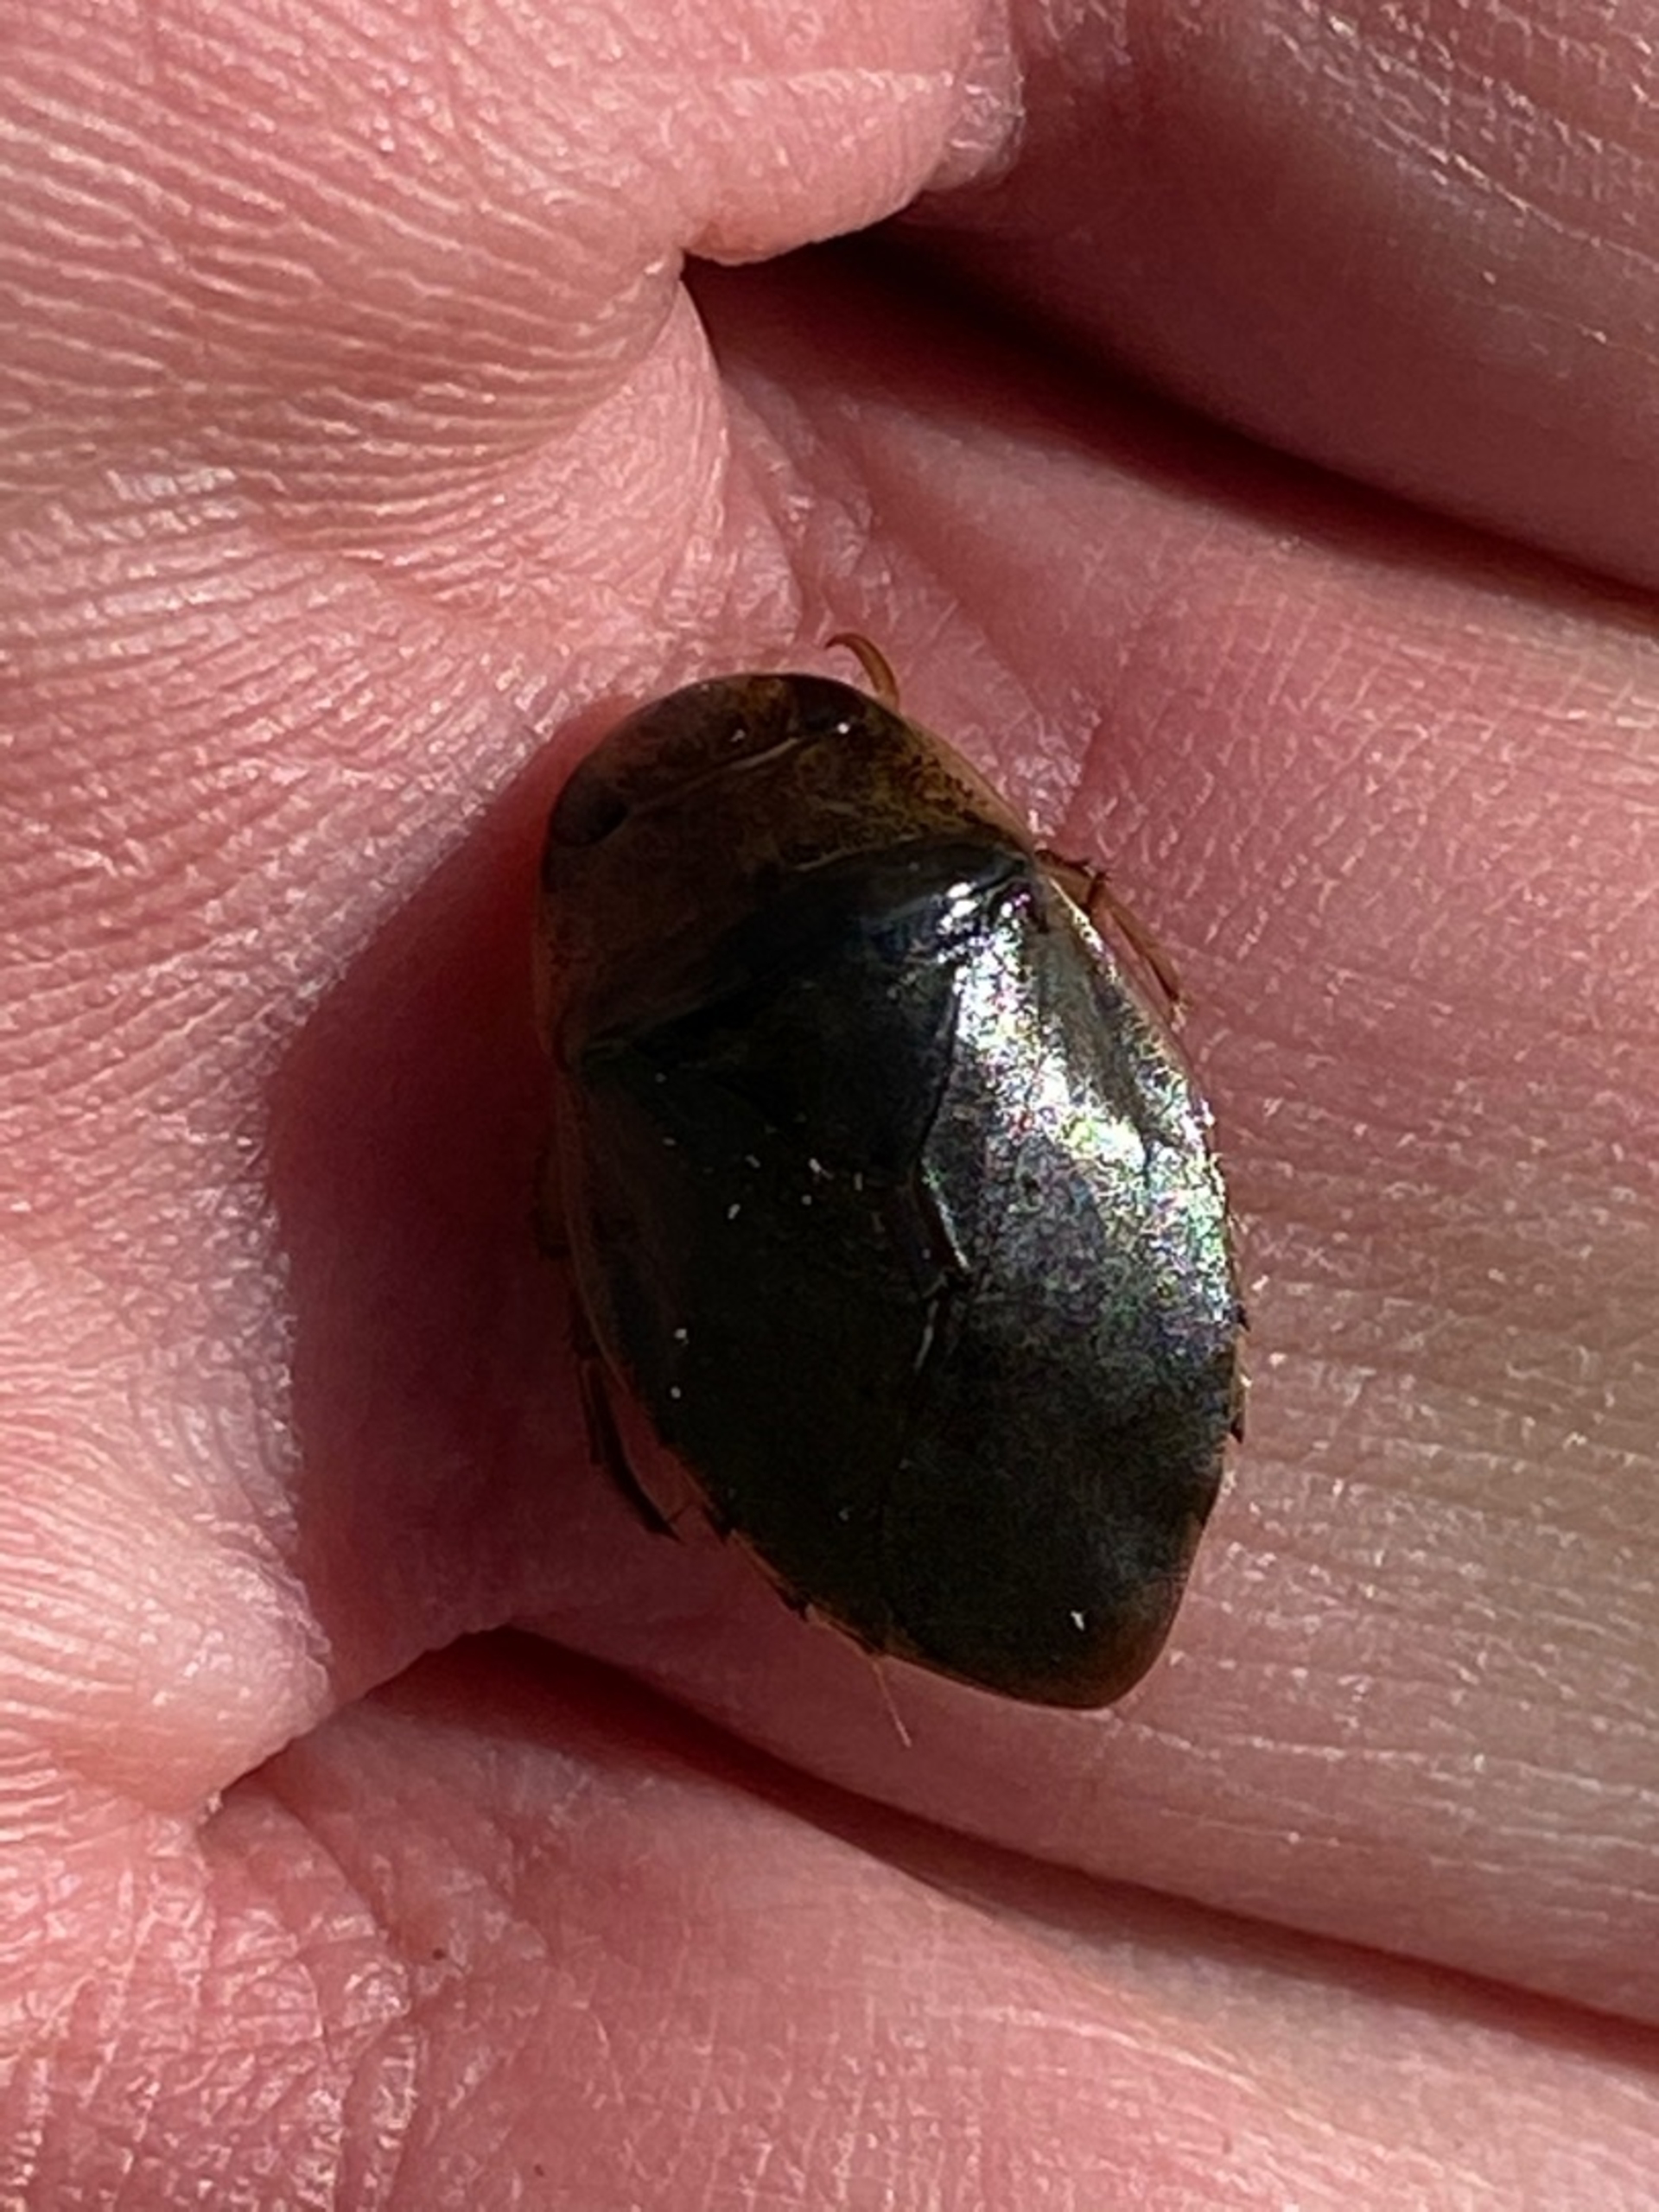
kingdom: Animalia
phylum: Arthropoda
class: Insecta
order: Hemiptera
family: Naucoridae
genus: Ilyocoris
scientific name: Ilyocoris cimicoides
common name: Vandrøver
